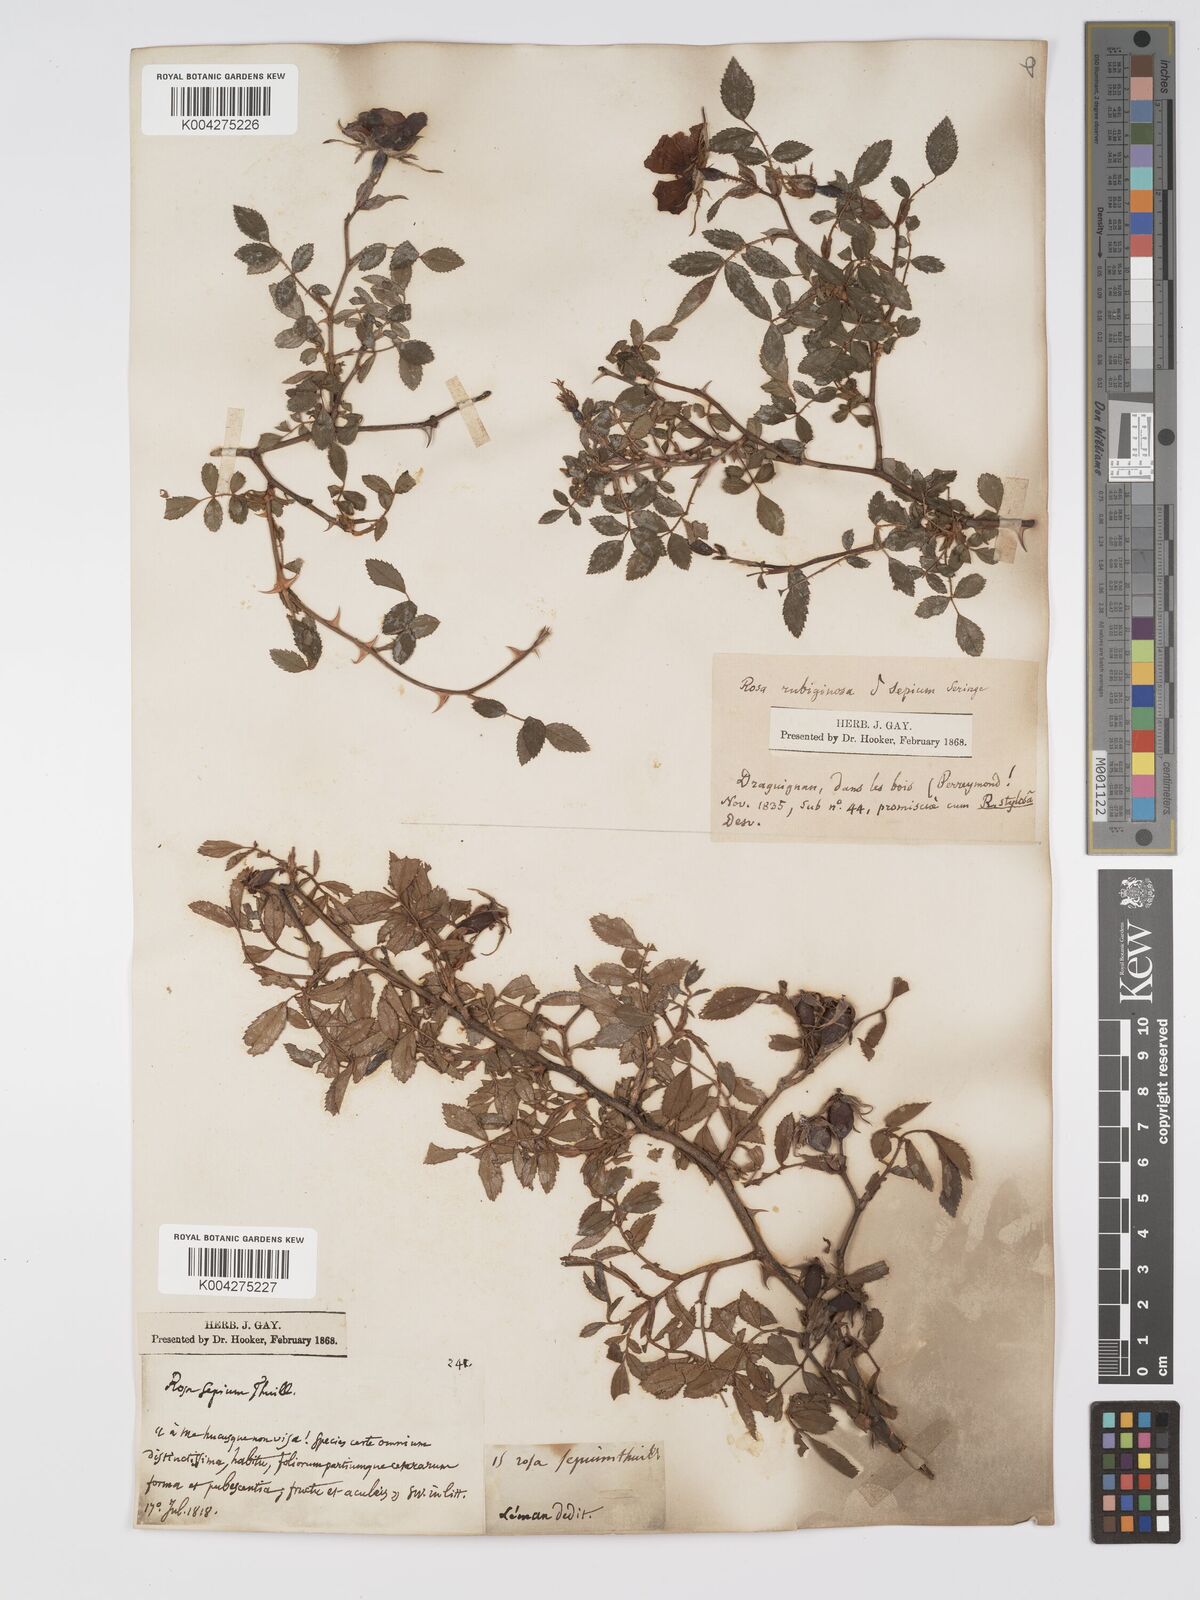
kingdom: Plantae
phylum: Tracheophyta
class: Magnoliopsida
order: Rosales
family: Rosaceae
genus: Rosa
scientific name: Rosa
